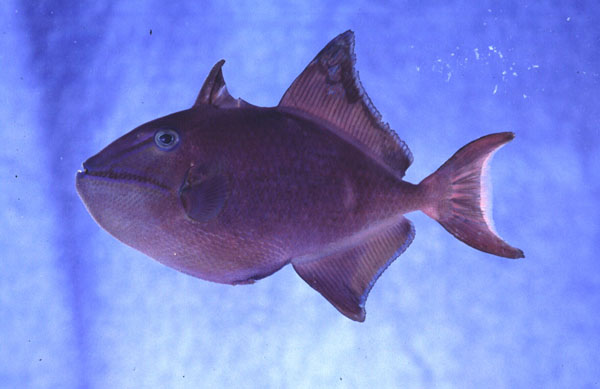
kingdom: Animalia
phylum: Chordata
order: Tetraodontiformes
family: Balistidae
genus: Odonus
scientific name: Odonus niger
